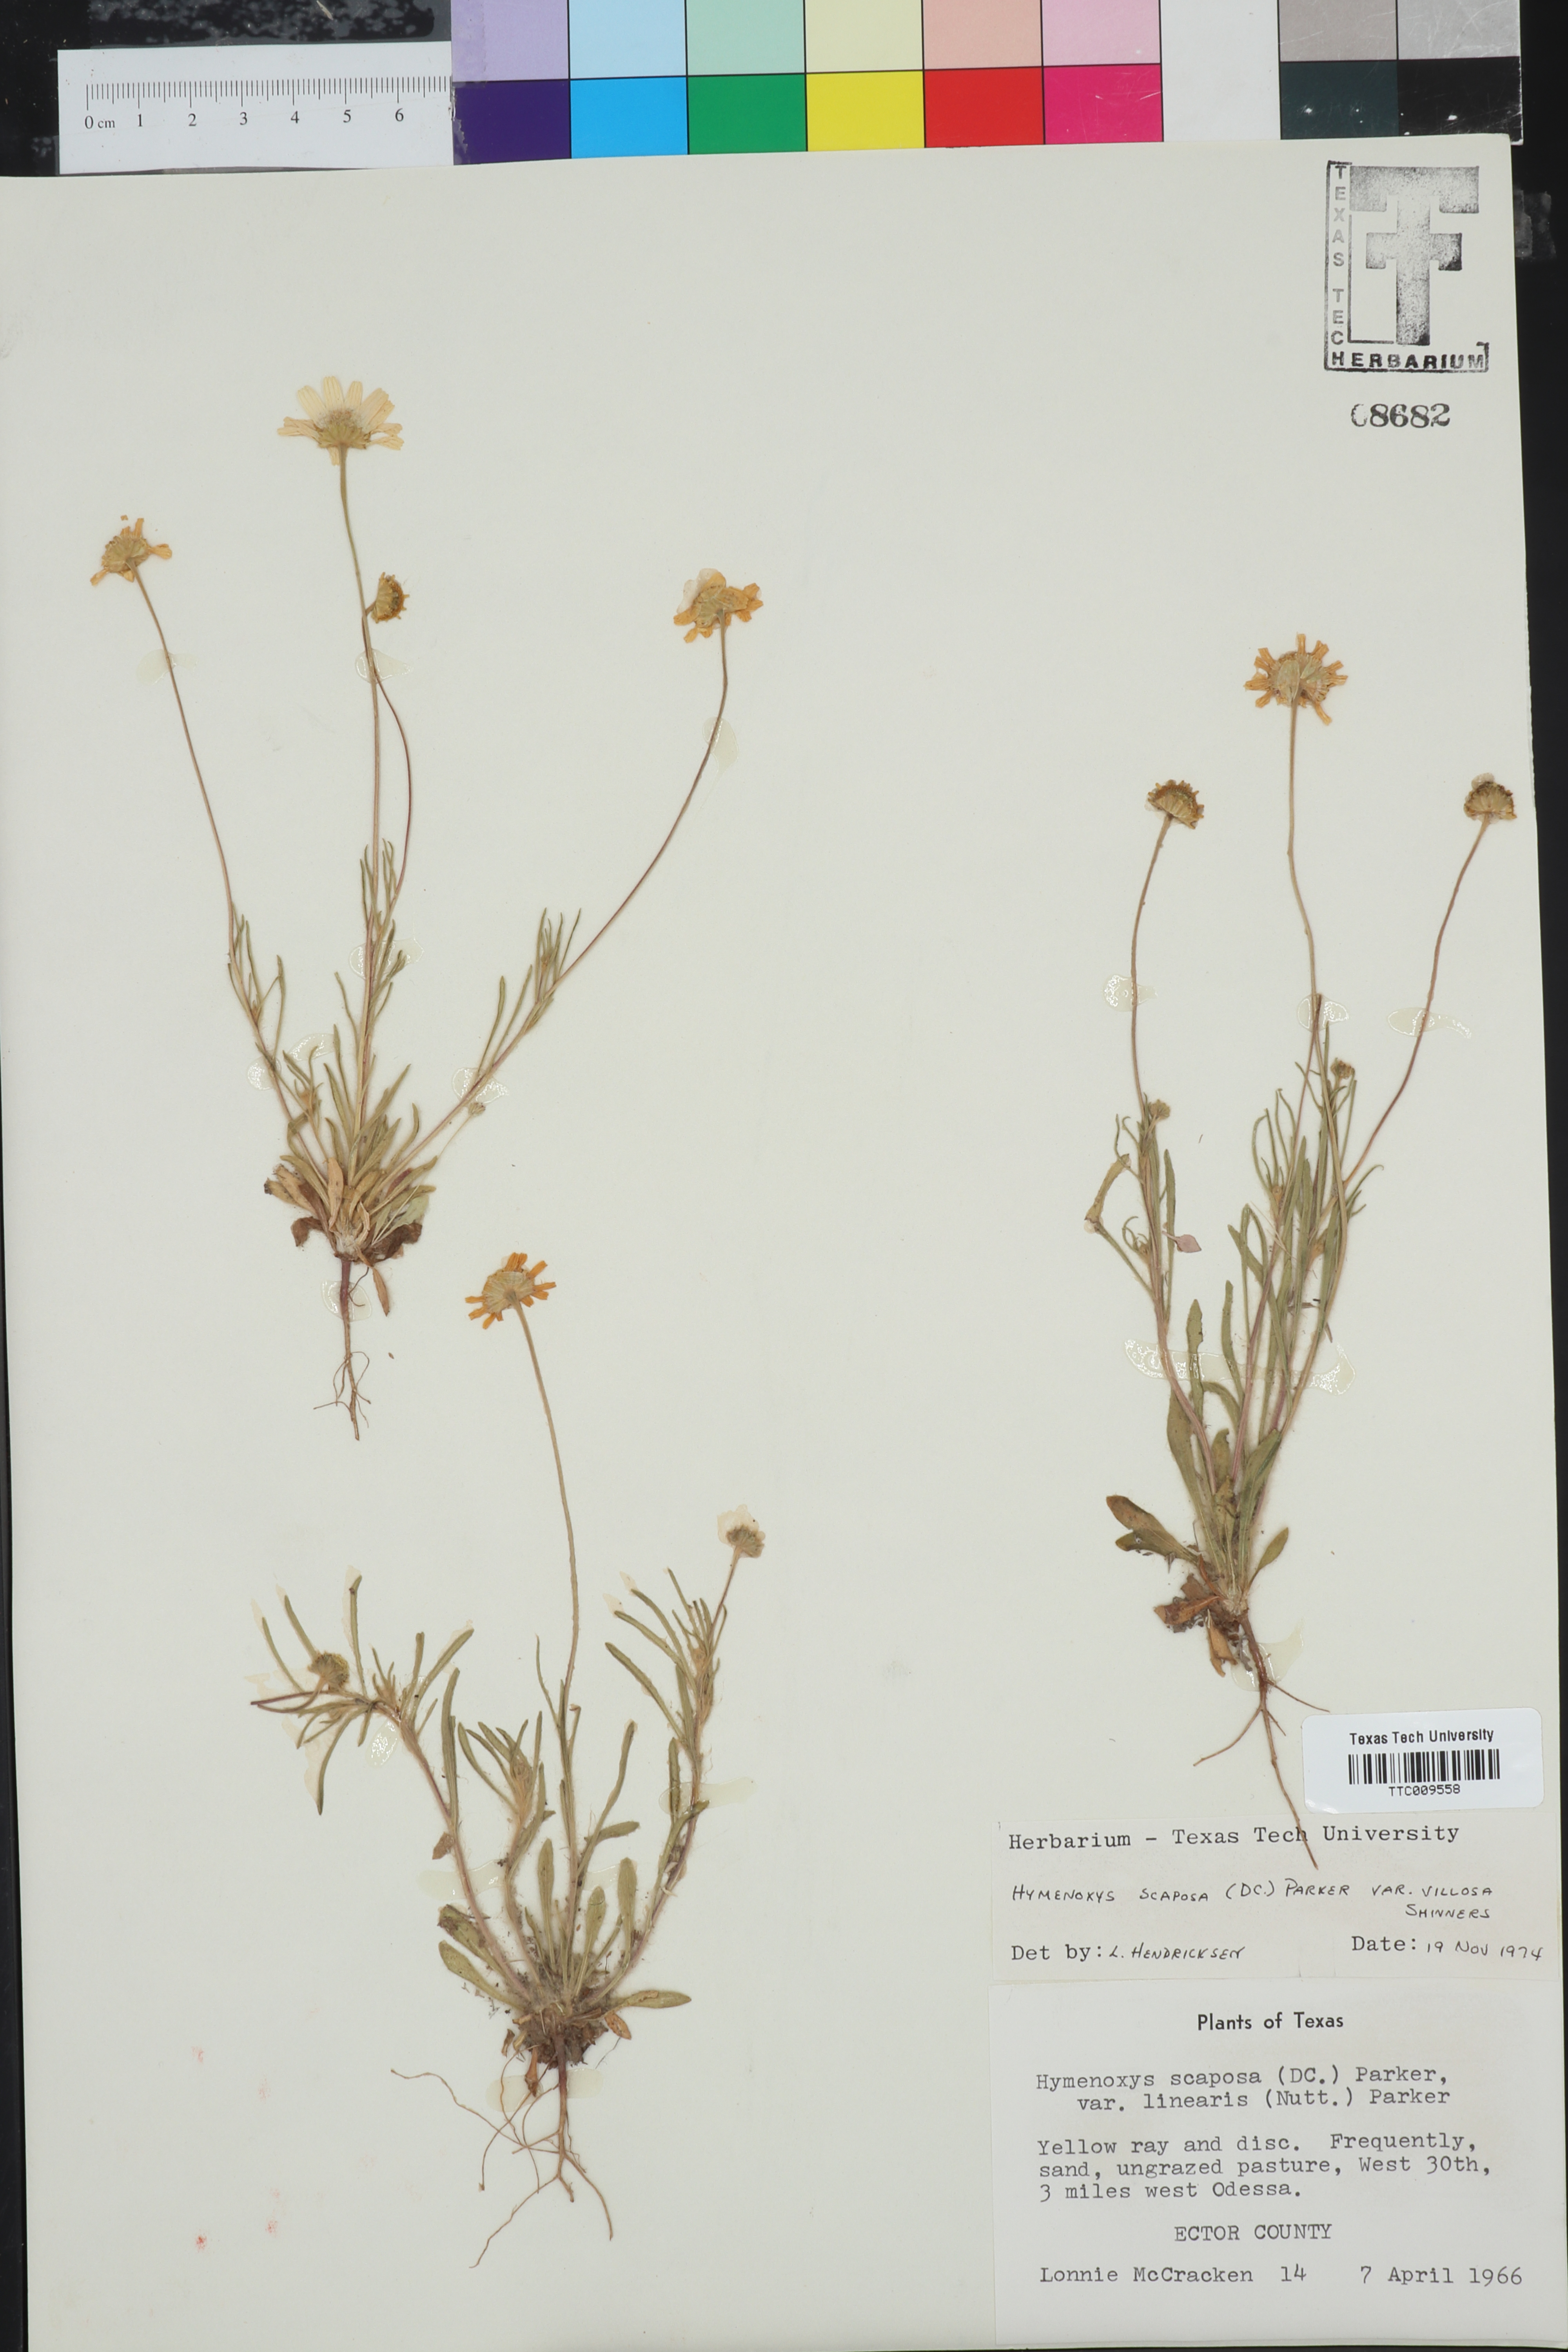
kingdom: Plantae
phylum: Tracheophyta
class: Magnoliopsida
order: Asterales
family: Asteraceae
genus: Tetraneuris
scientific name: Tetraneuris scaposa
